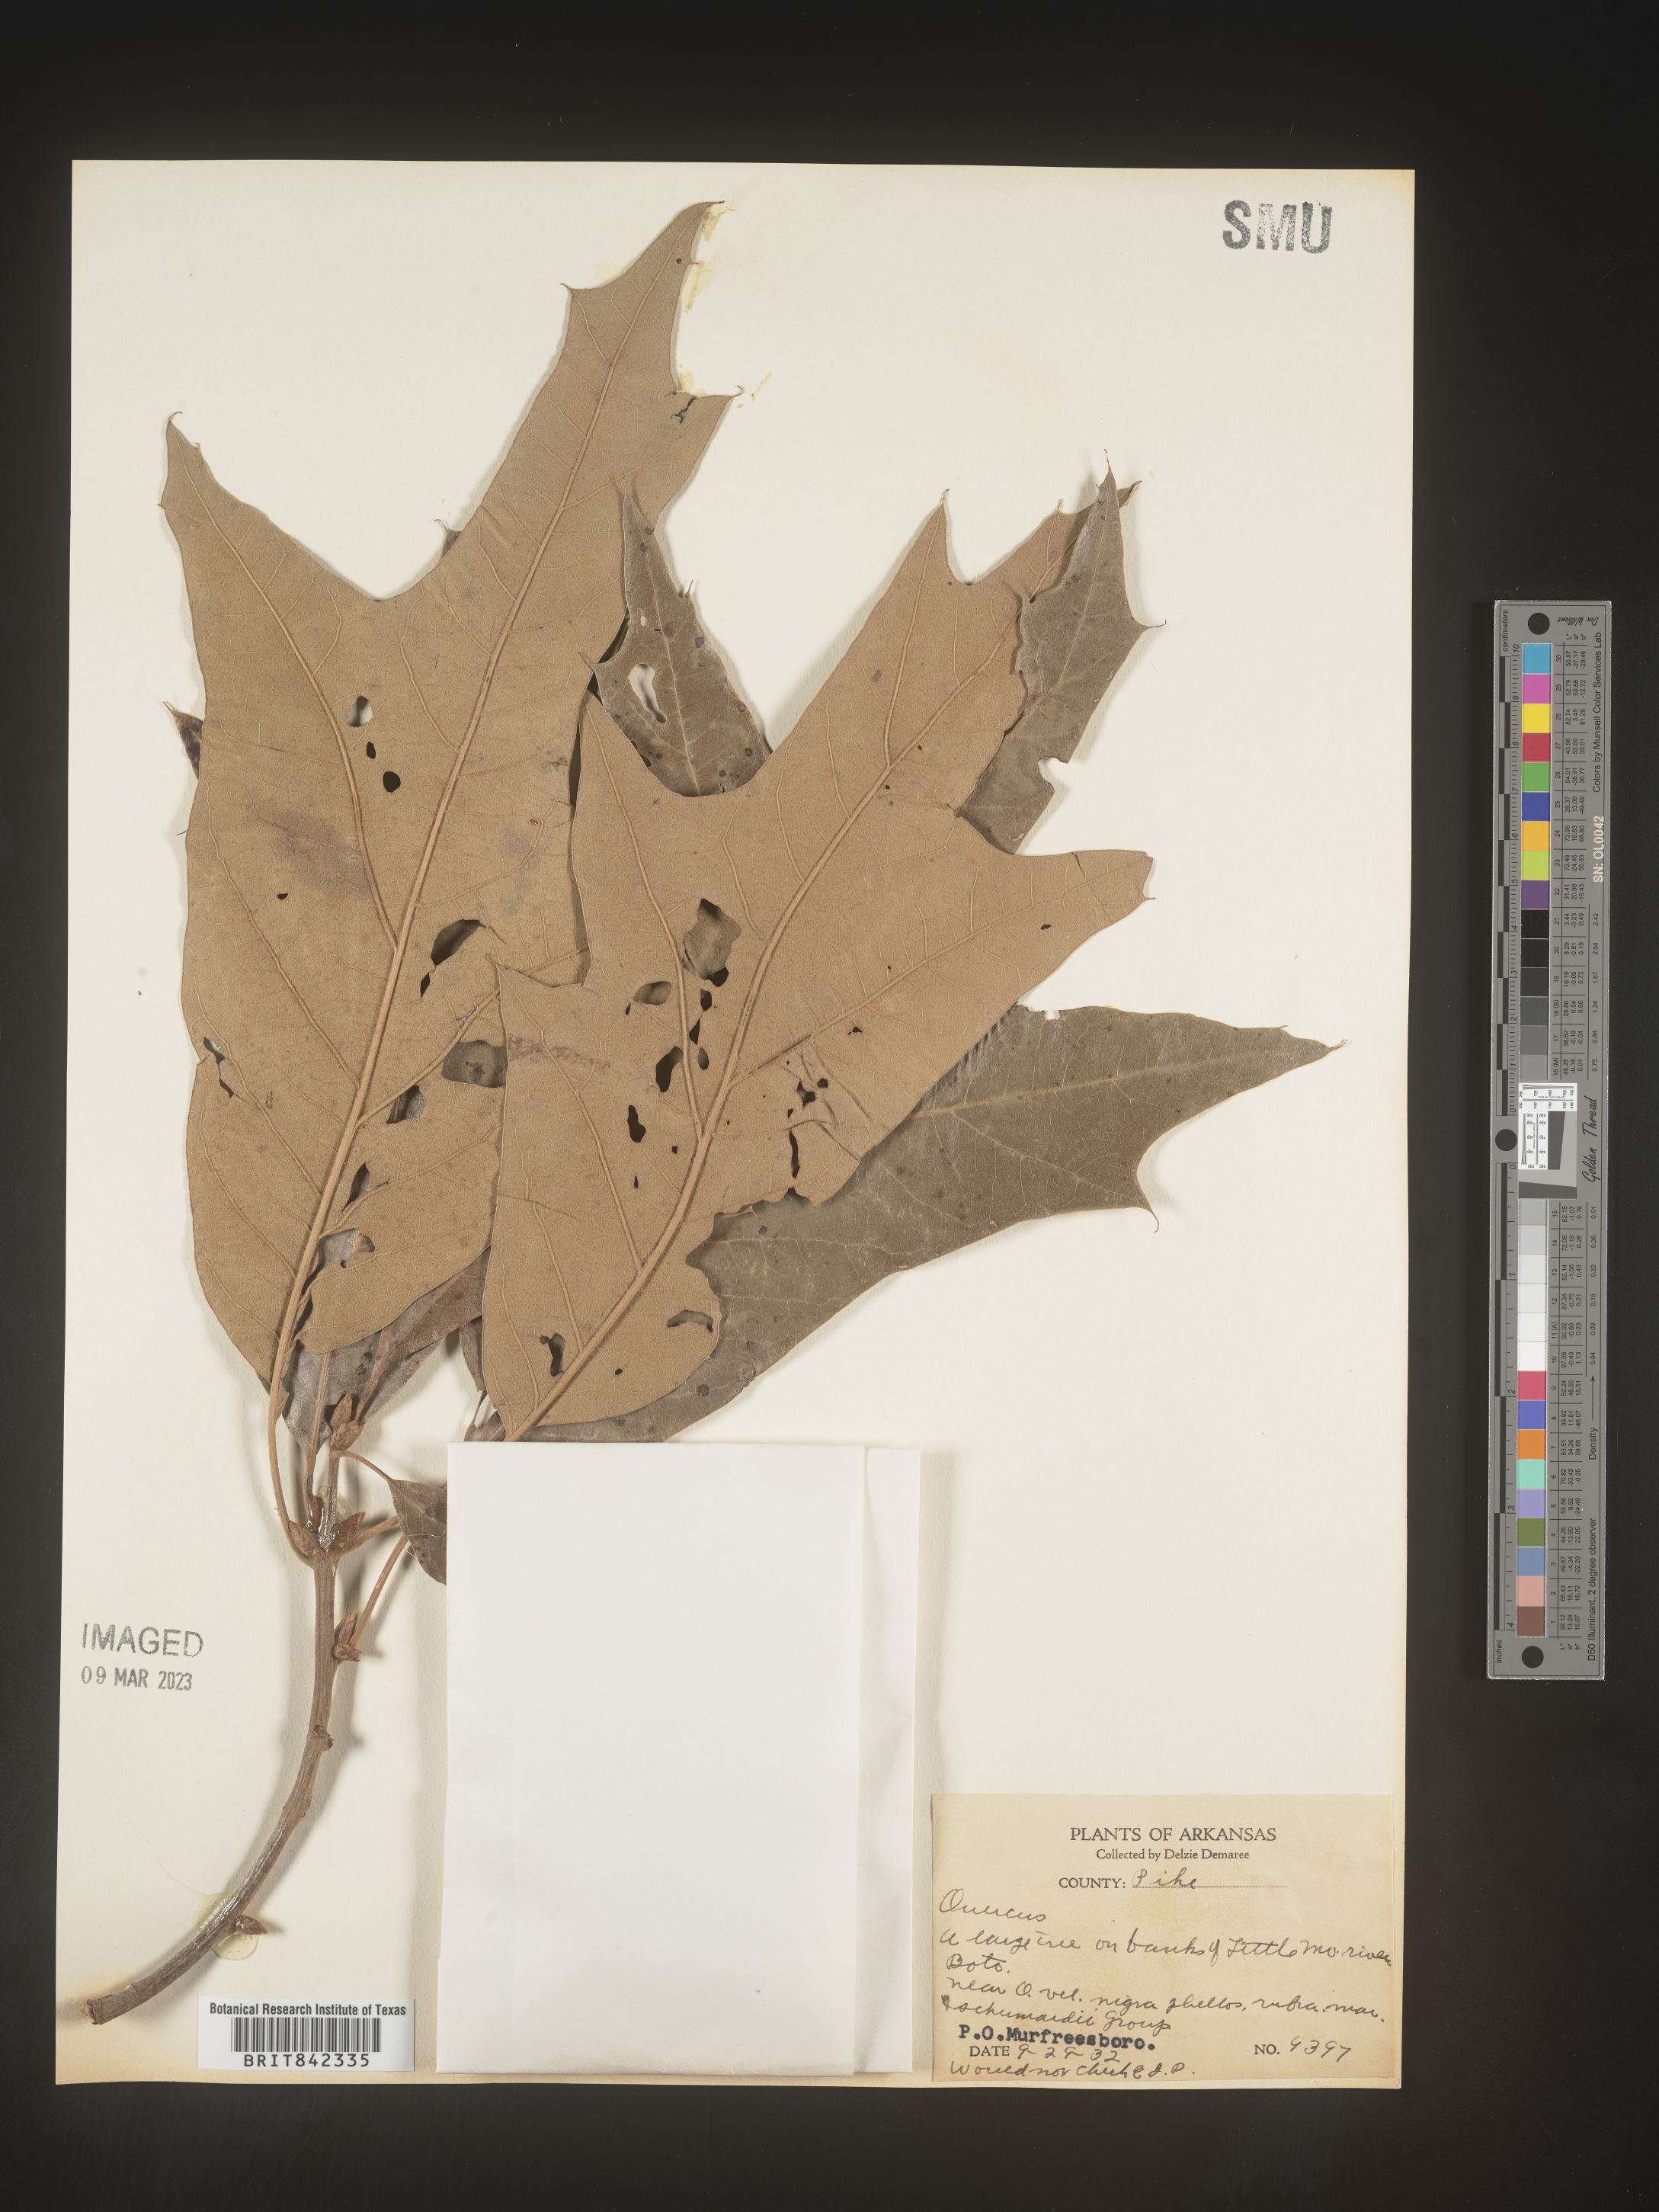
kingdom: Plantae
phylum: Tracheophyta
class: Magnoliopsida
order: Fagales
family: Fagaceae
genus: Quercus
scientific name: Quercus
